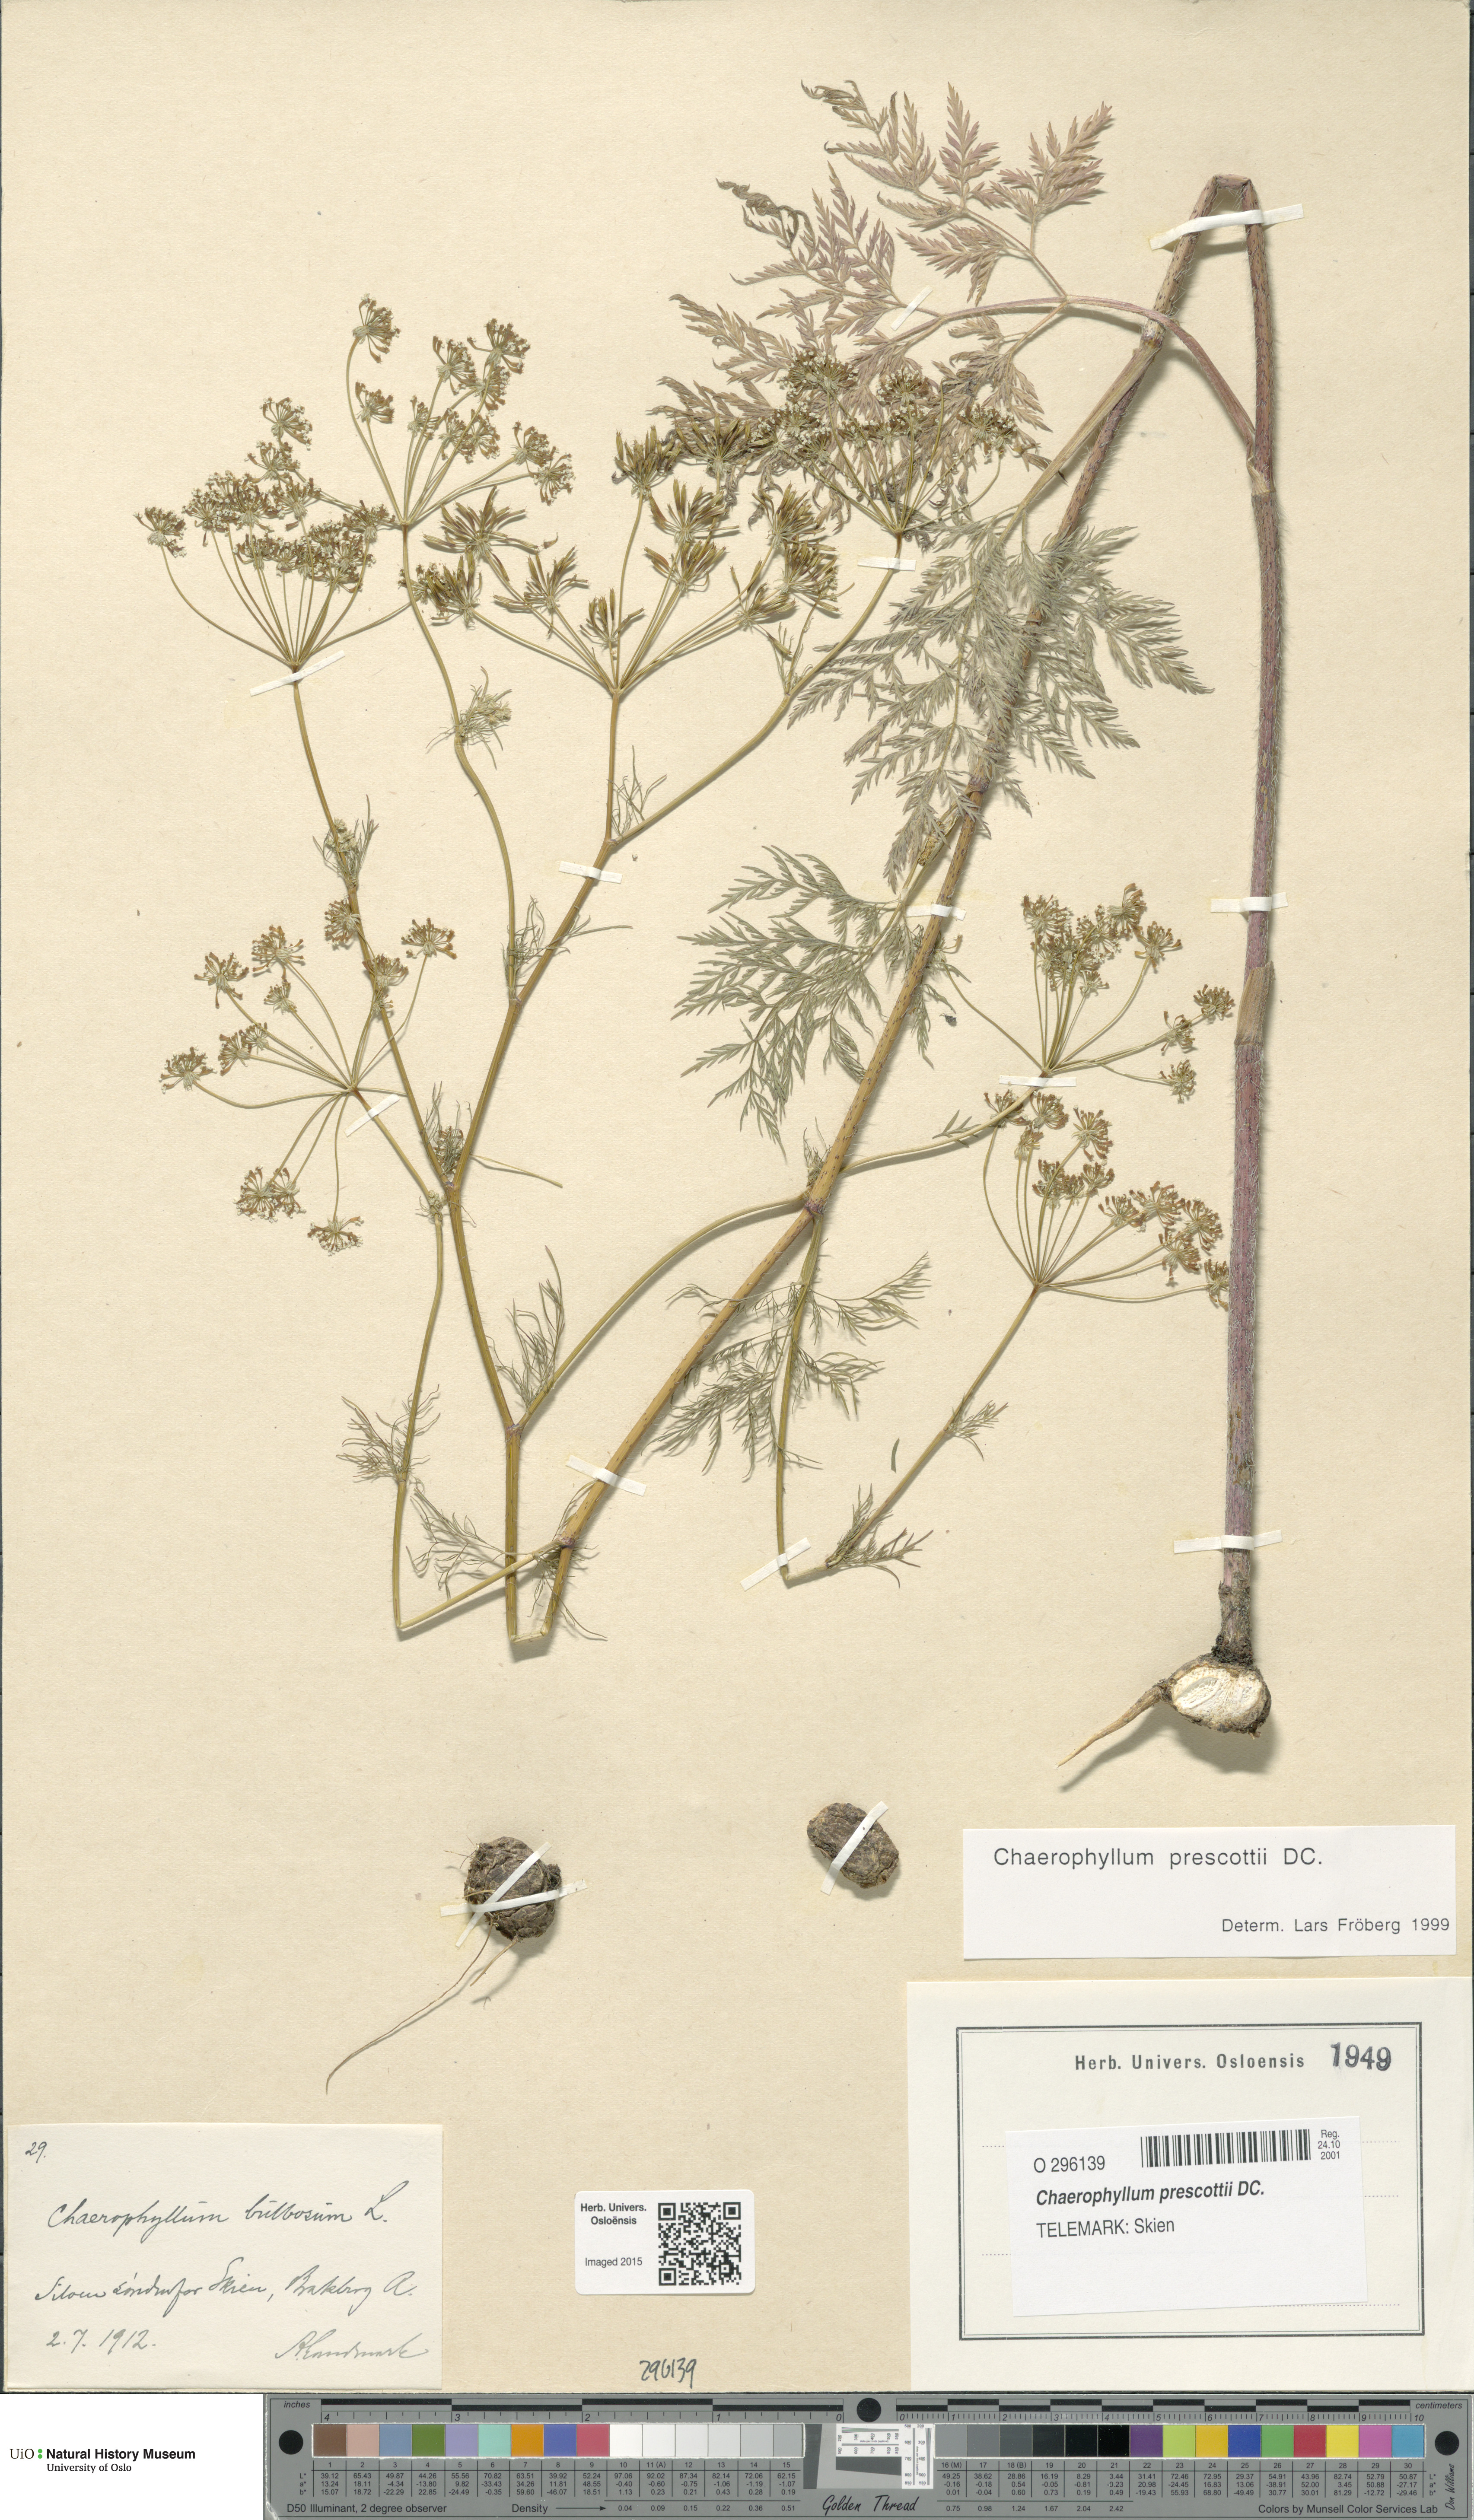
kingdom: Plantae
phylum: Tracheophyta
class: Magnoliopsida
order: Apiales
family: Apiaceae
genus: Chaerophyllum
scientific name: Chaerophyllum prescottii
